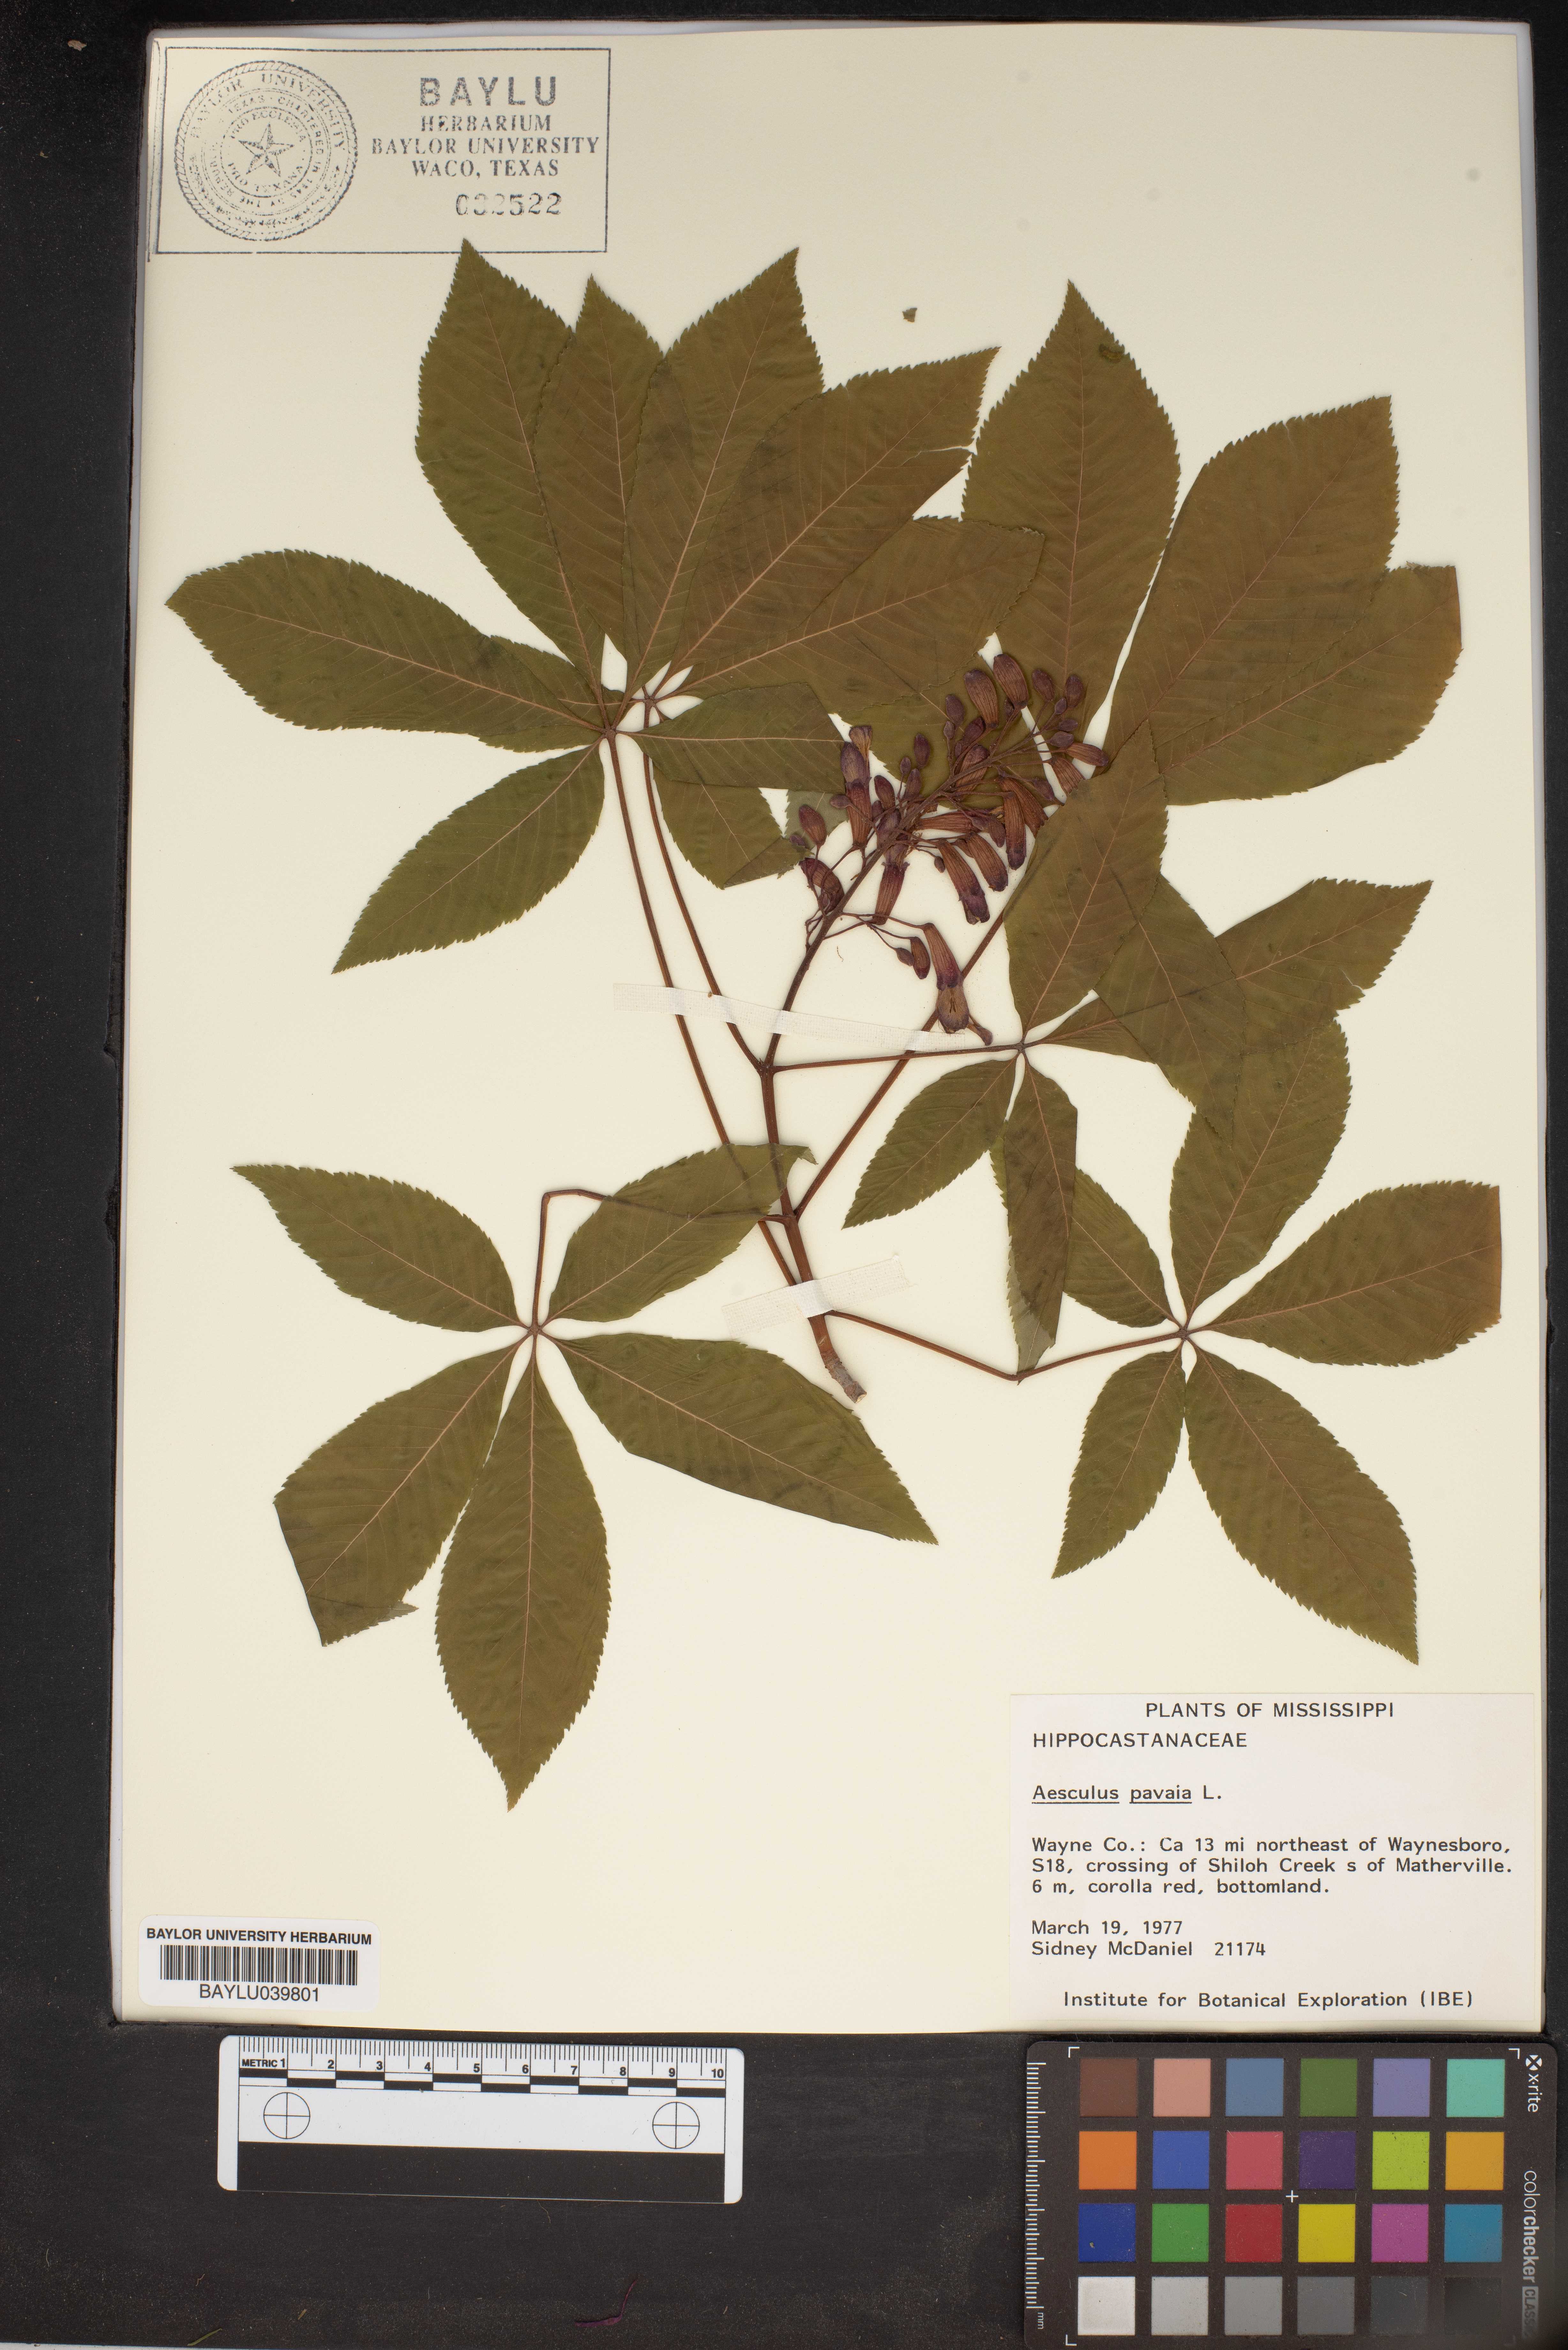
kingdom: Plantae
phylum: Tracheophyta
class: Magnoliopsida
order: Sapindales
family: Sapindaceae
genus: Aesculus
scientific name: Aesculus pavia
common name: Red buckeye
